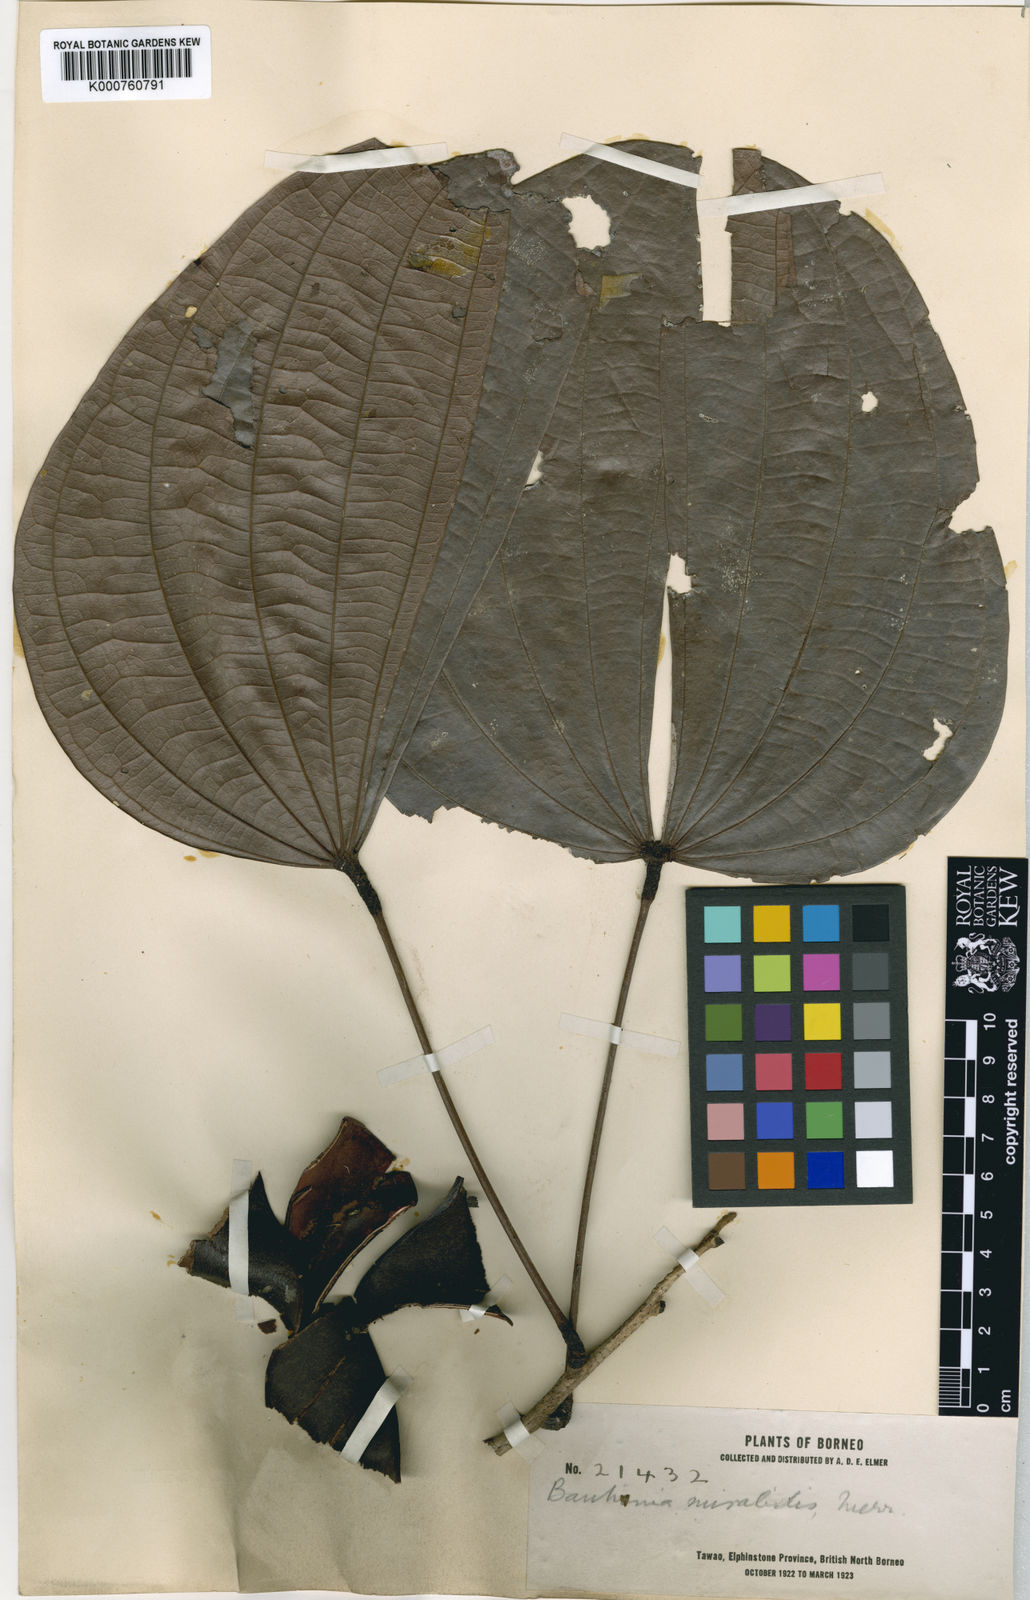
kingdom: Plantae
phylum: Tracheophyta
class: Magnoliopsida
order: Fabales
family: Fabaceae
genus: Bauhinia
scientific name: Bauhinia diptera
